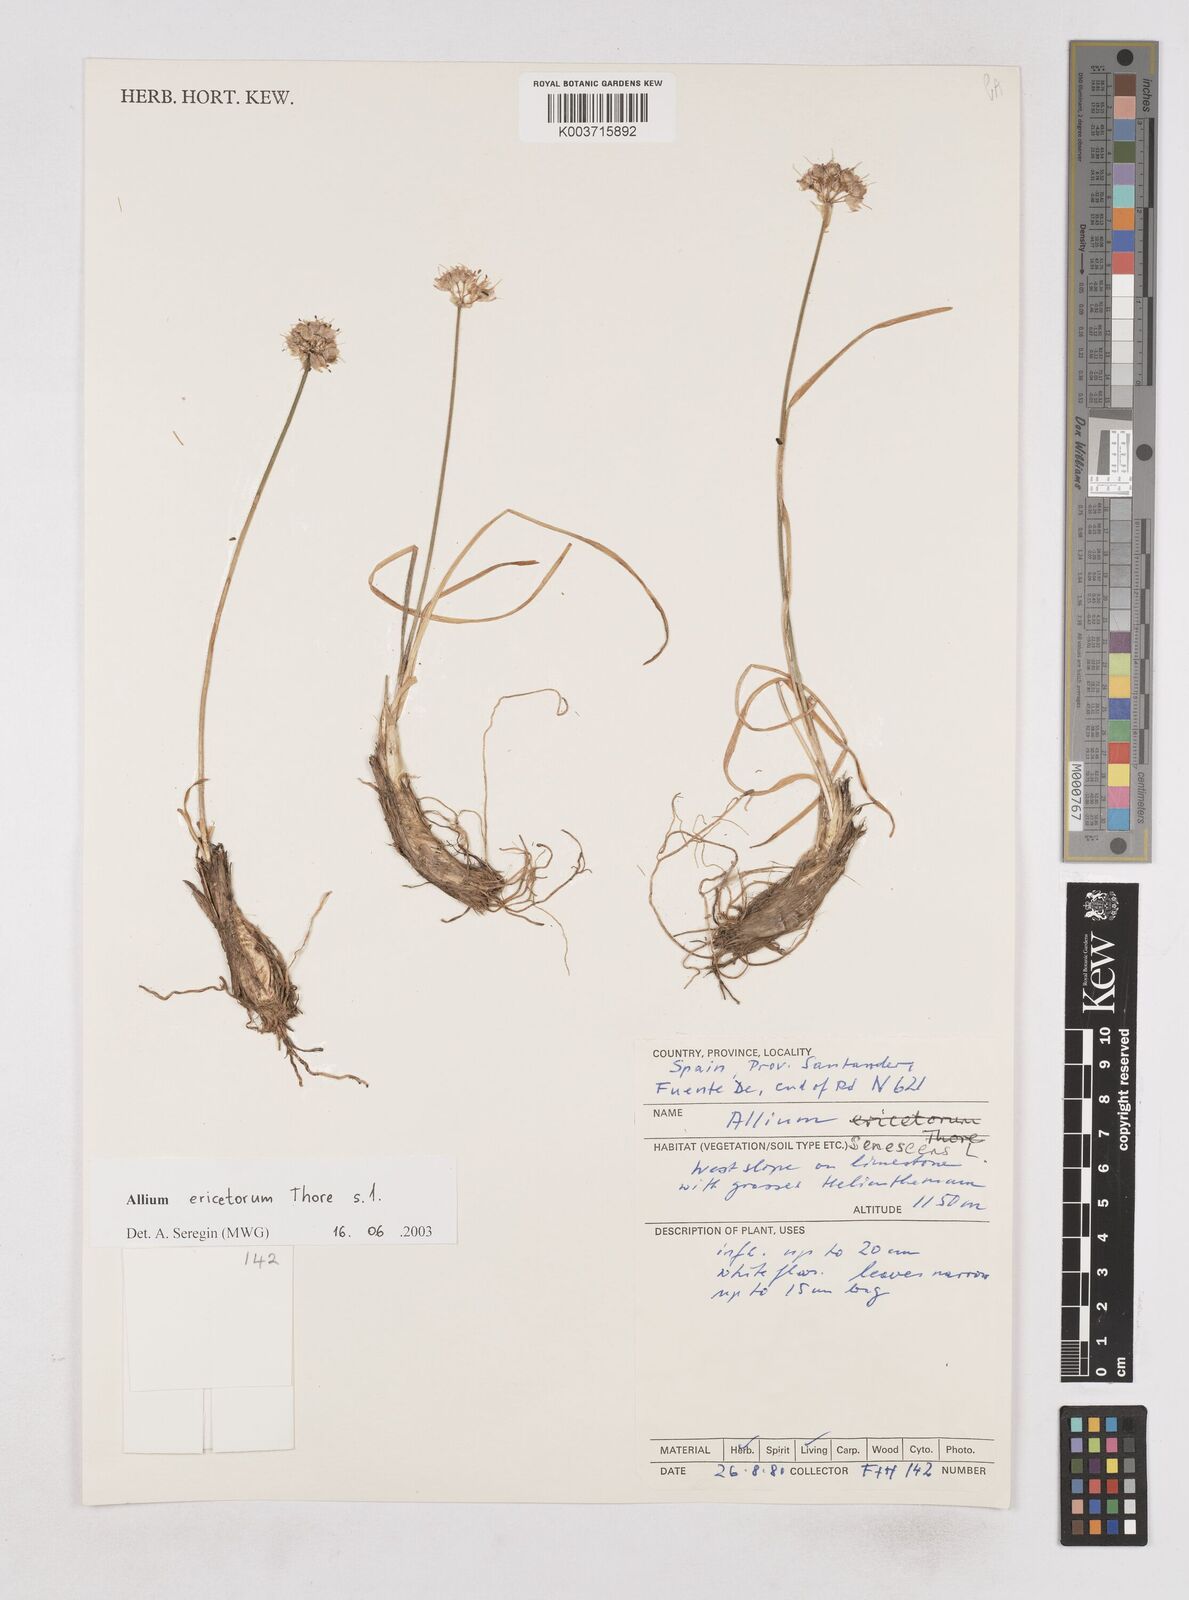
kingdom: Plantae
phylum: Tracheophyta
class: Liliopsida
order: Asparagales
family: Amaryllidaceae
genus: Allium
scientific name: Allium ericetorum
